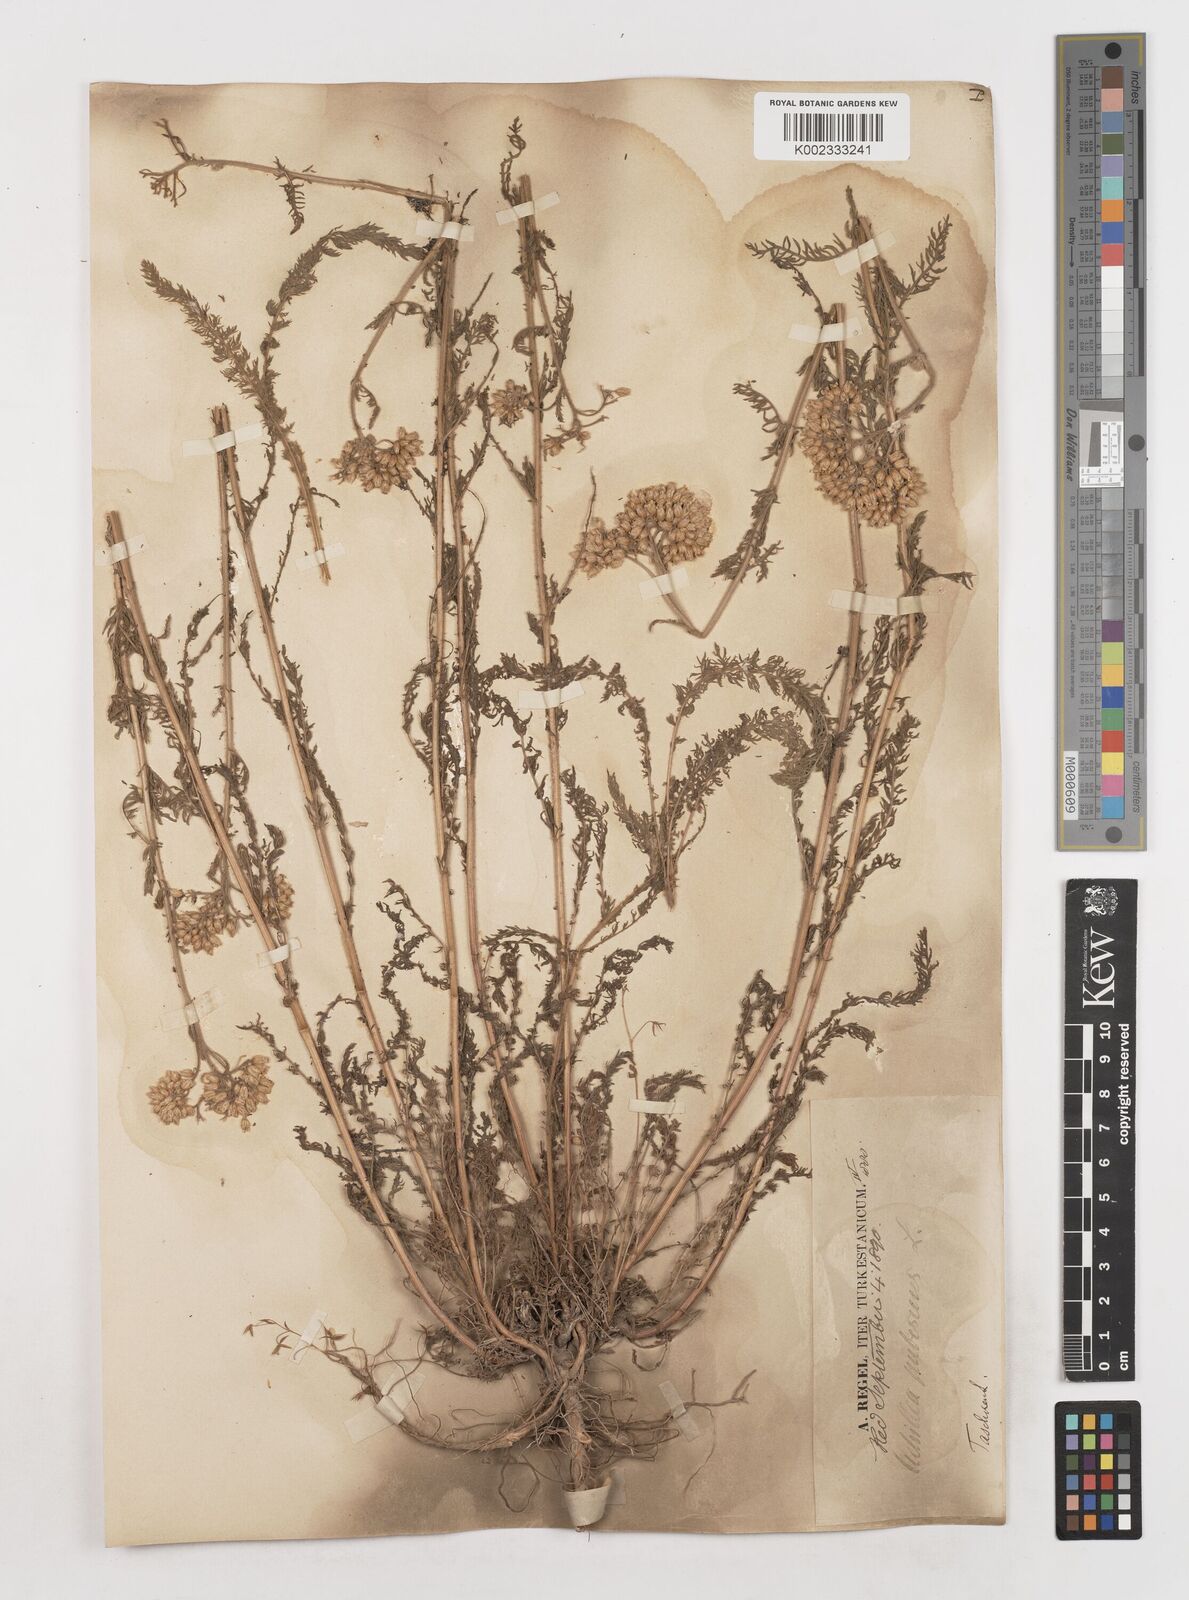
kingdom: Plantae
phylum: Tracheophyta
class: Magnoliopsida
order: Asterales
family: Asteraceae
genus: Achillea
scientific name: Achillea micrantha
